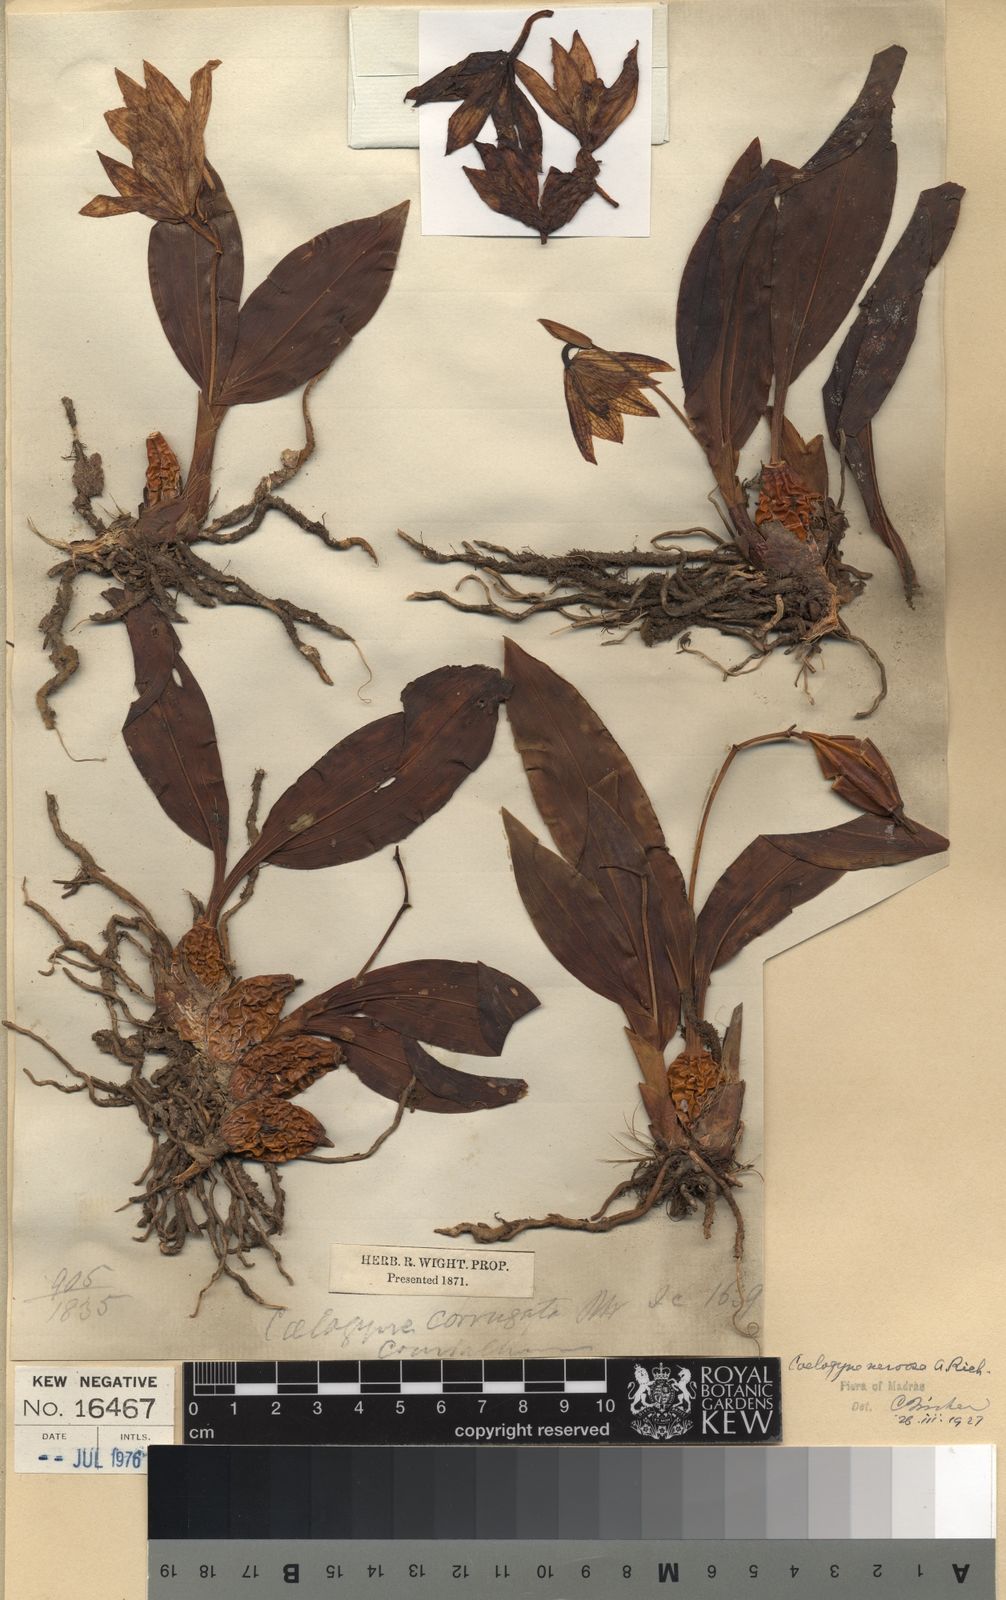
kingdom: Plantae
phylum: Tracheophyta
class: Liliopsida
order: Asparagales
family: Orchidaceae
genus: Coelogyne
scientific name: Coelogyne nervosa
